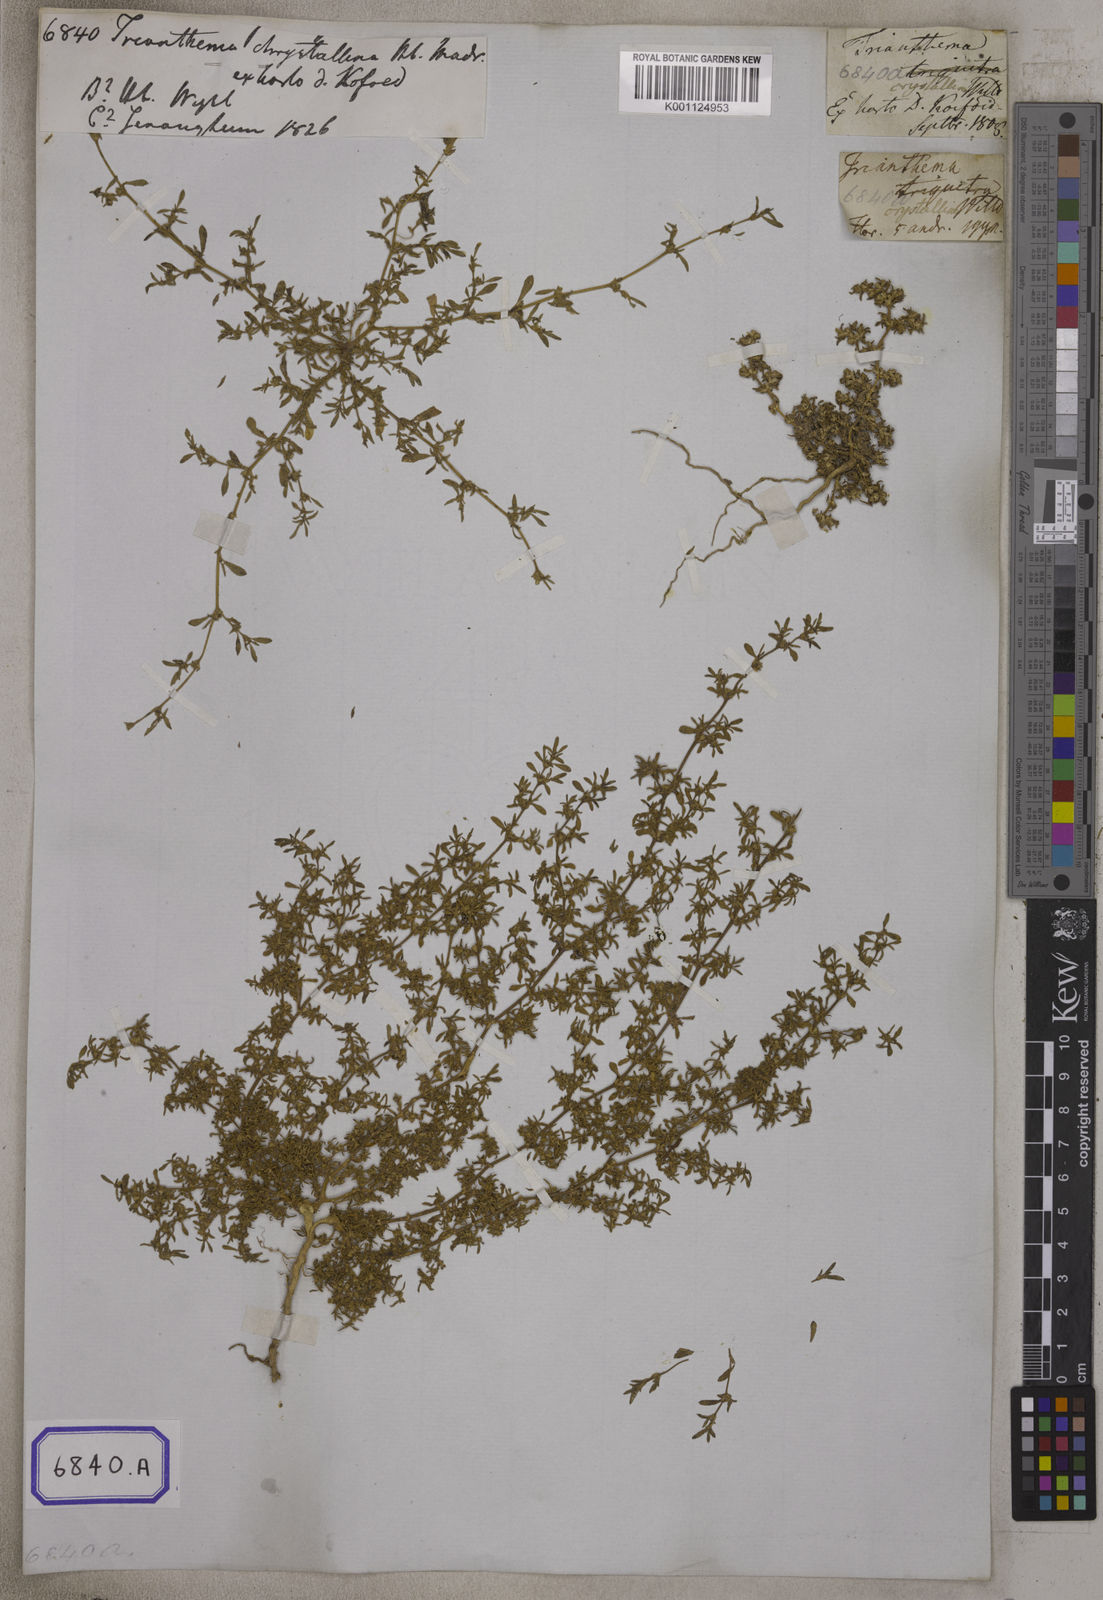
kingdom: Plantae
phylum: Tracheophyta
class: Magnoliopsida
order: Caryophyllales
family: Aizoaceae
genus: Trianthema
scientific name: Trianthema crystallinum
